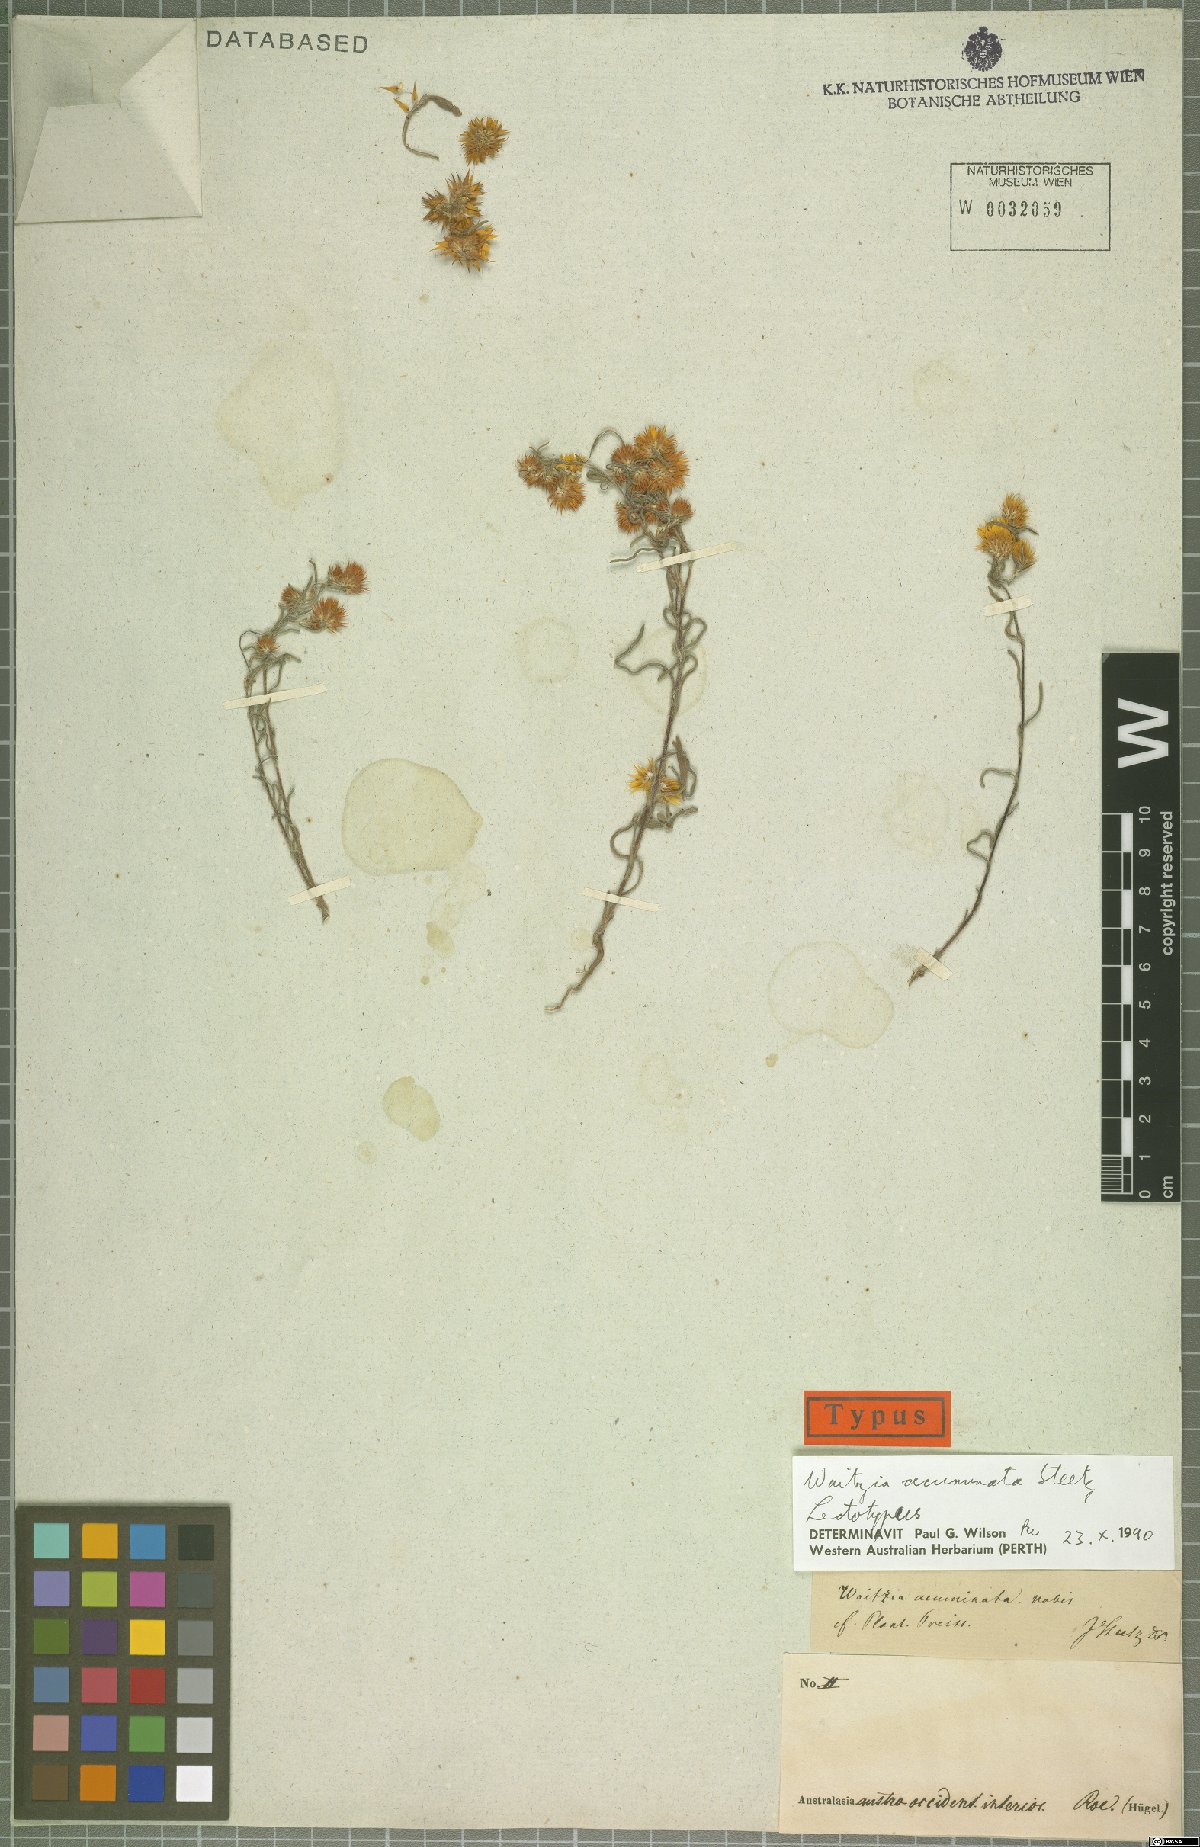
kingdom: Plantae
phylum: Tracheophyta
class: Magnoliopsida
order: Asterales
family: Asteraceae
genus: Waitzia
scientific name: Waitzia acuminata
